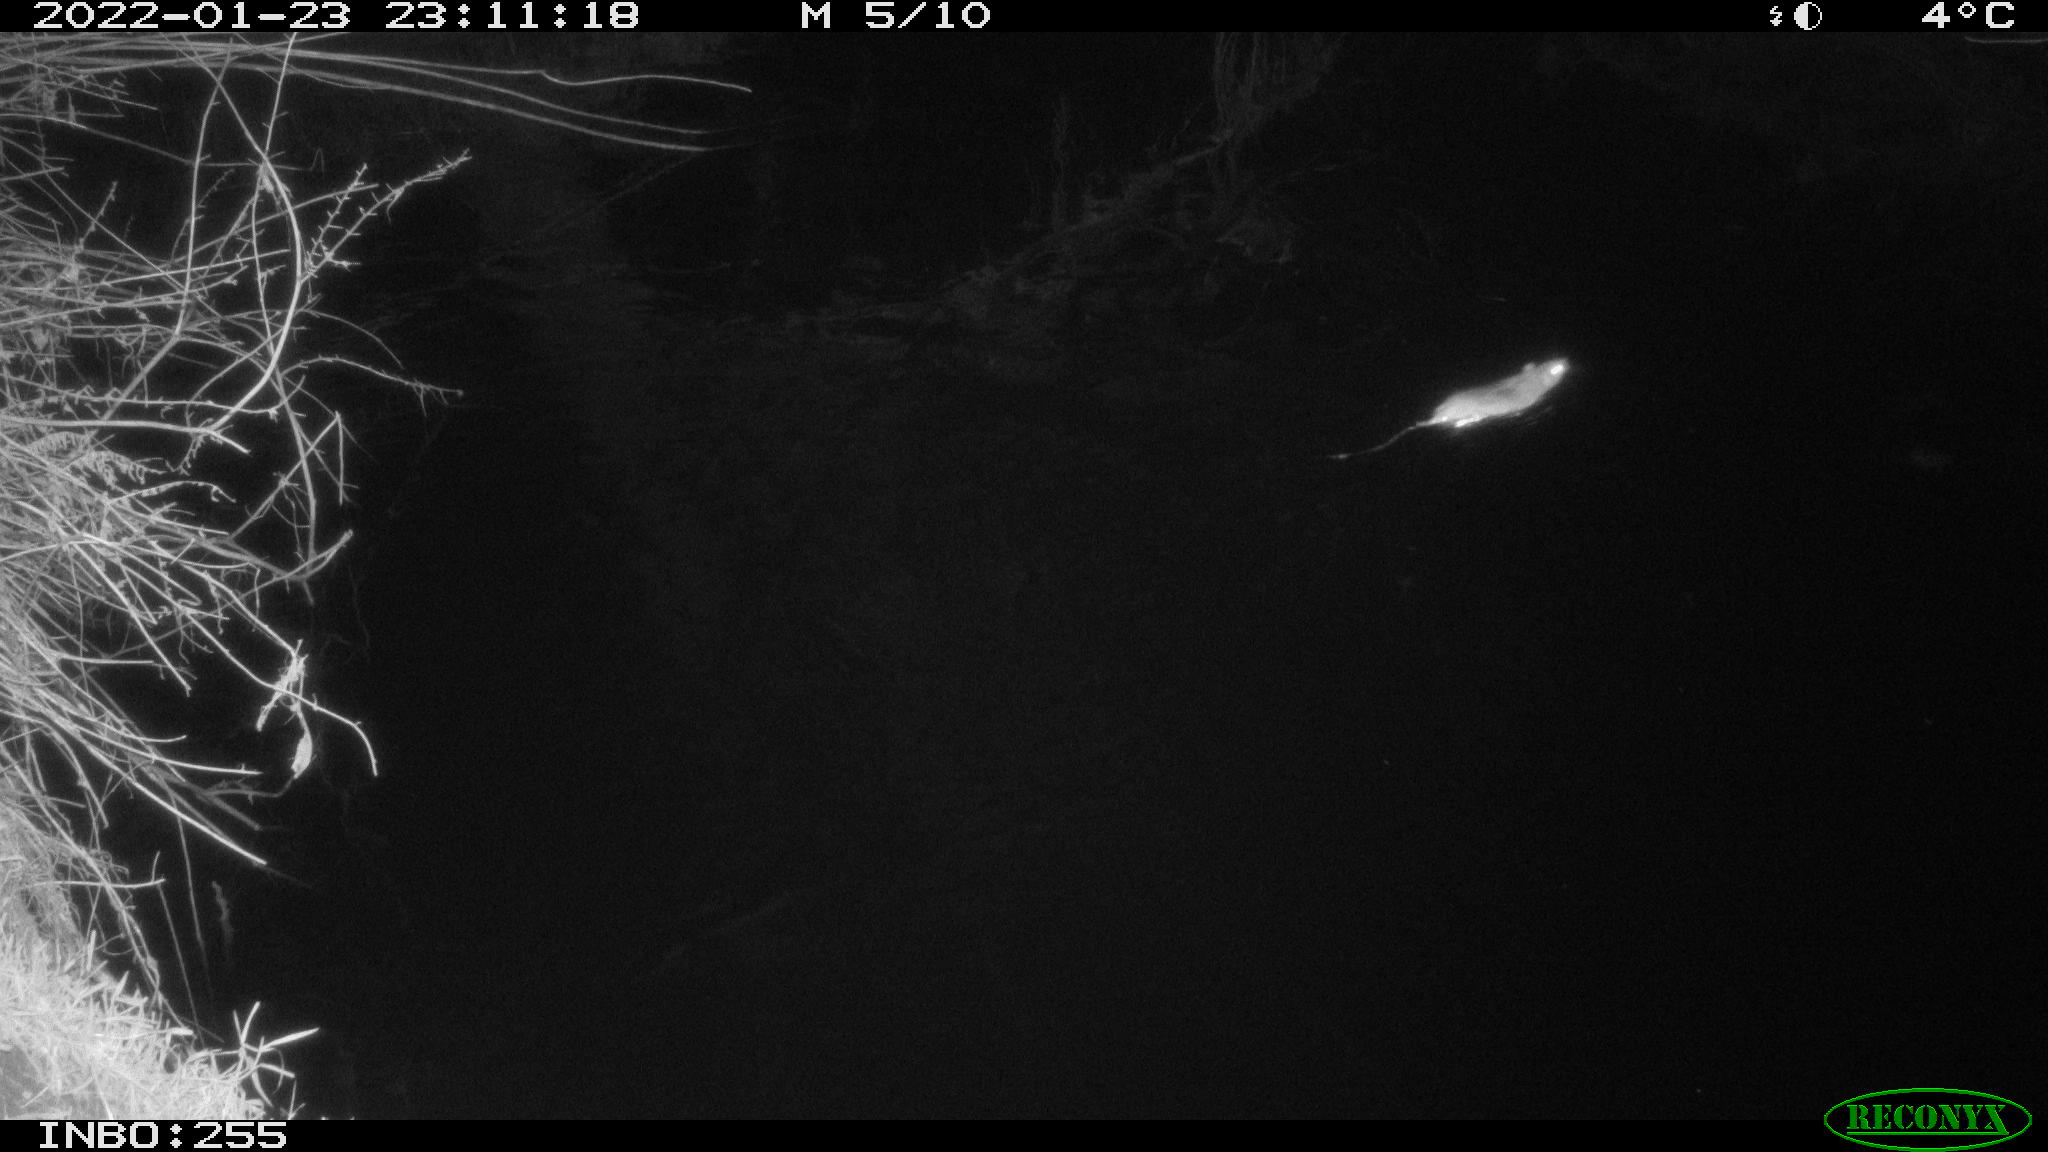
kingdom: Animalia
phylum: Chordata
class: Aves
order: Anseriformes
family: Anatidae
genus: Anas
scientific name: Anas platyrhynchos
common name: Mallard
